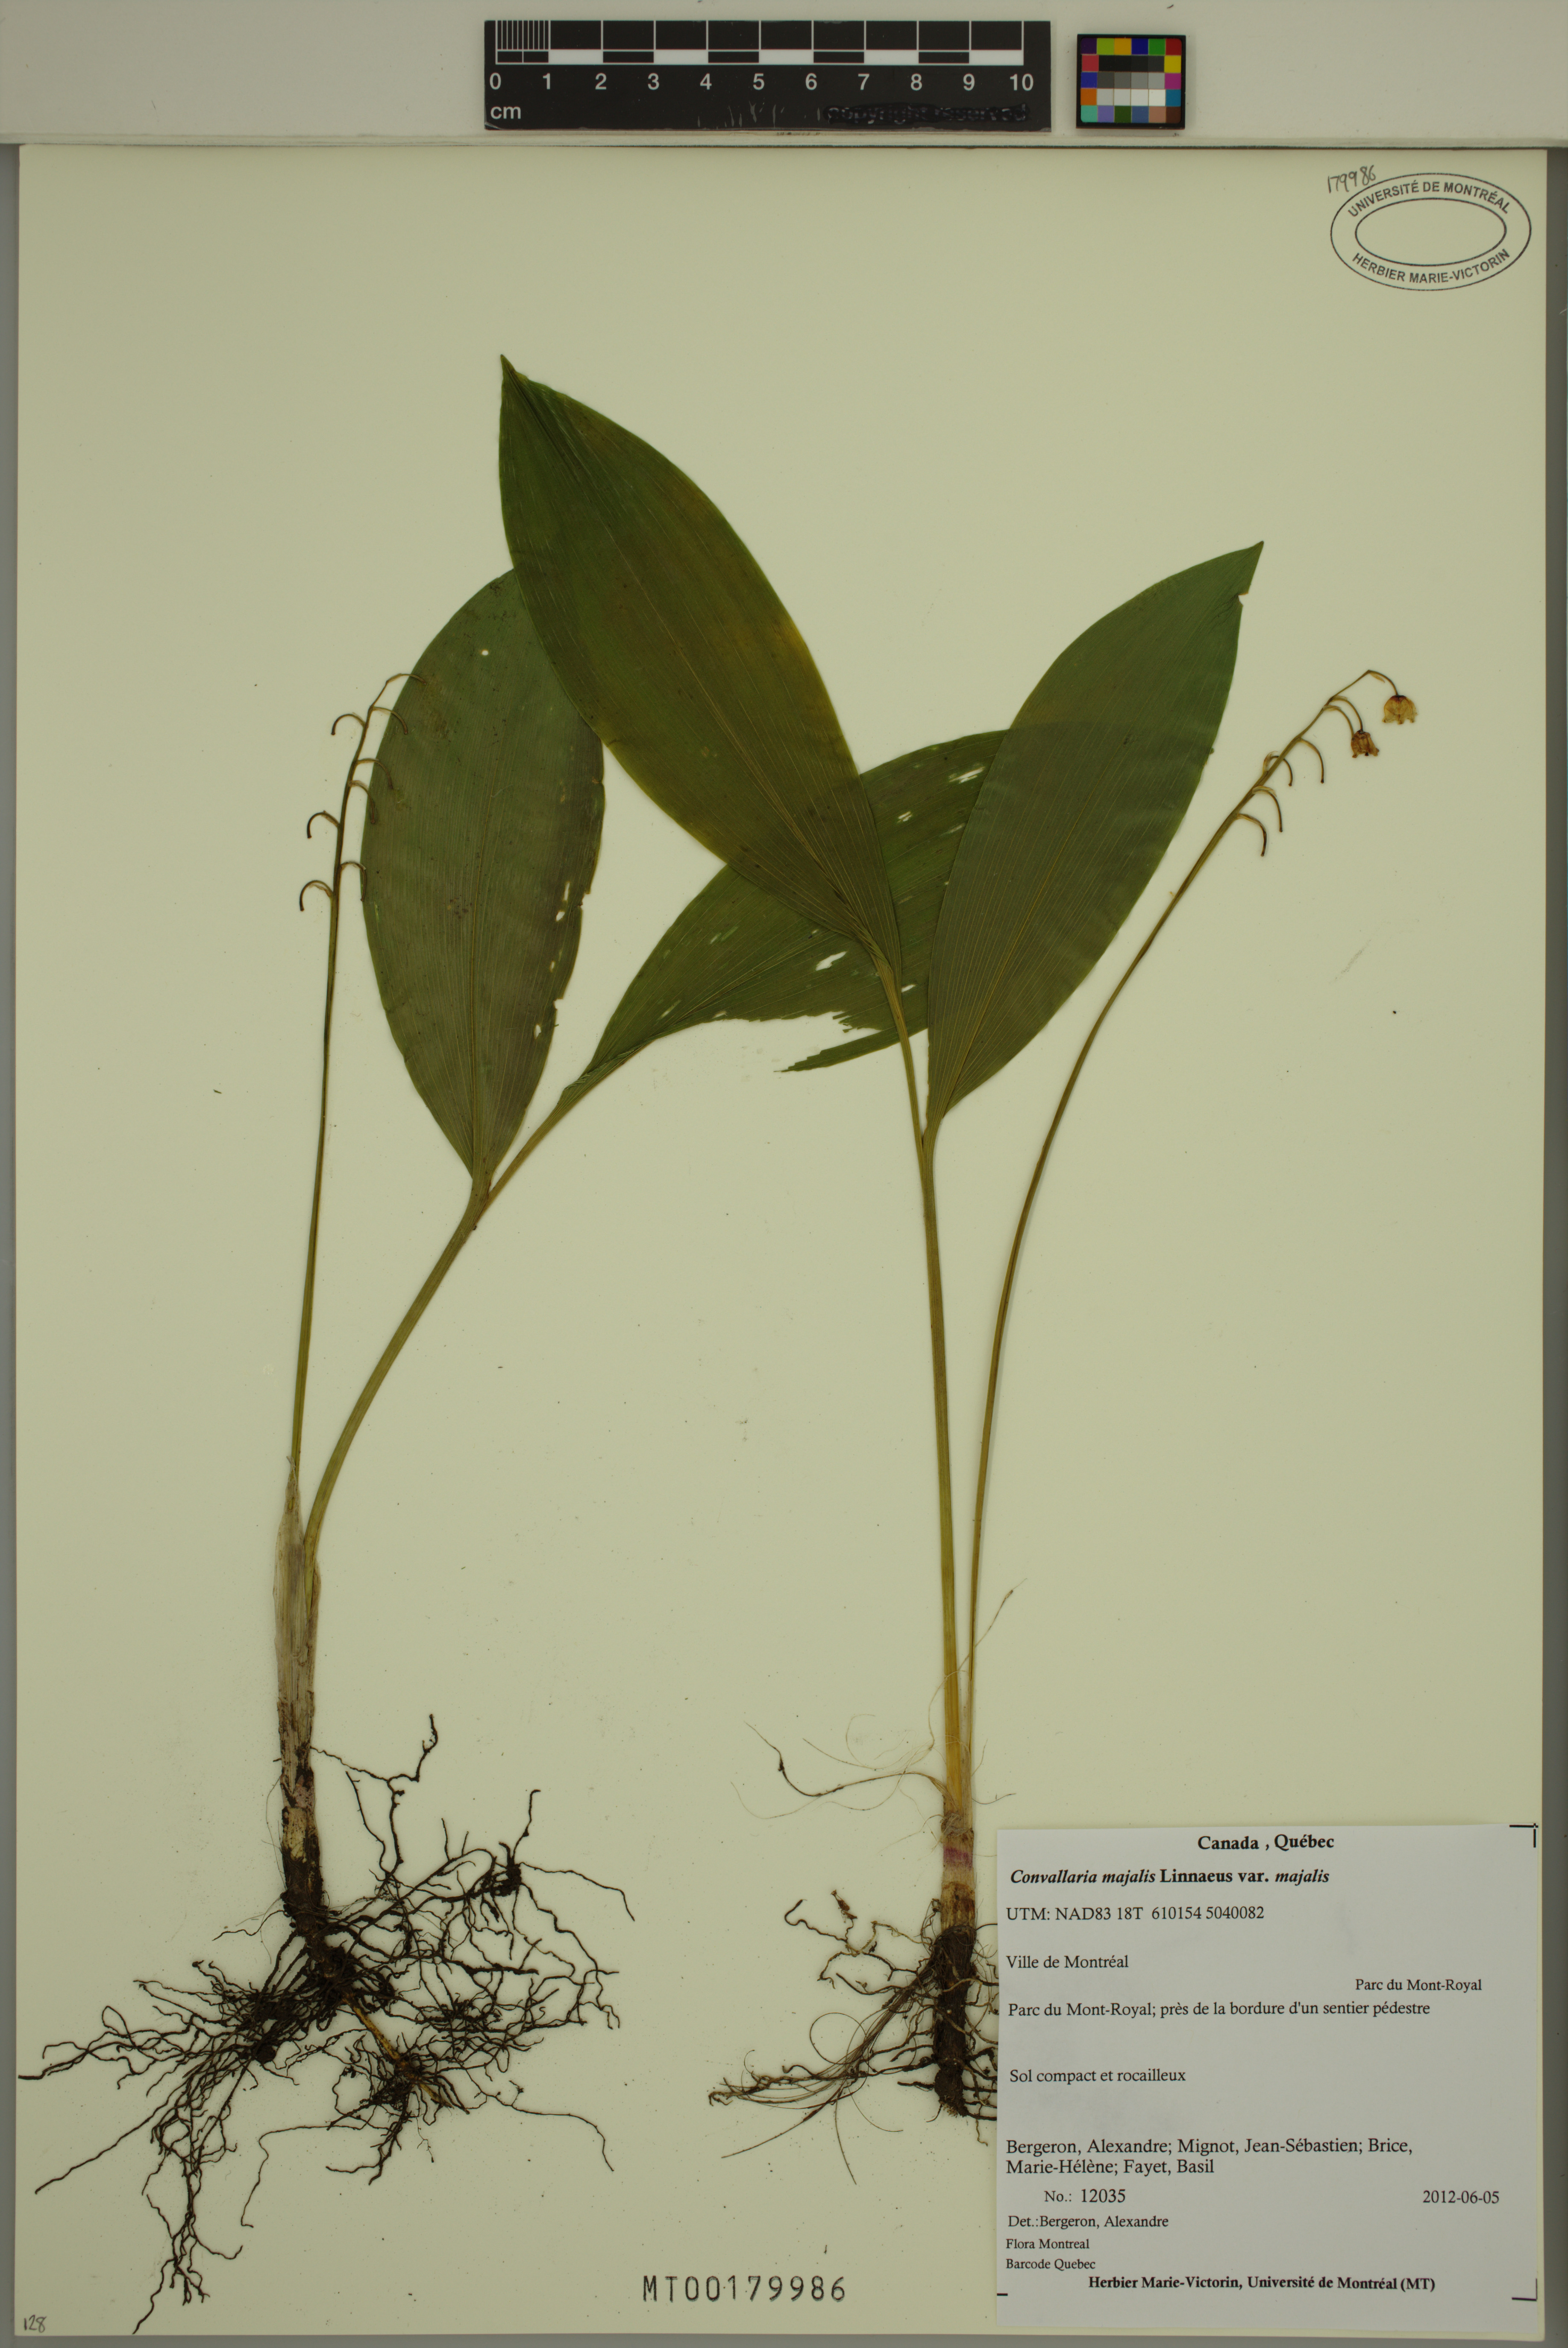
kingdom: Plantae
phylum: Tracheophyta
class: Liliopsida
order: Asparagales
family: Asparagaceae
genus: Convallaria
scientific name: Convallaria majalis
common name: Lily-of-the-valley
